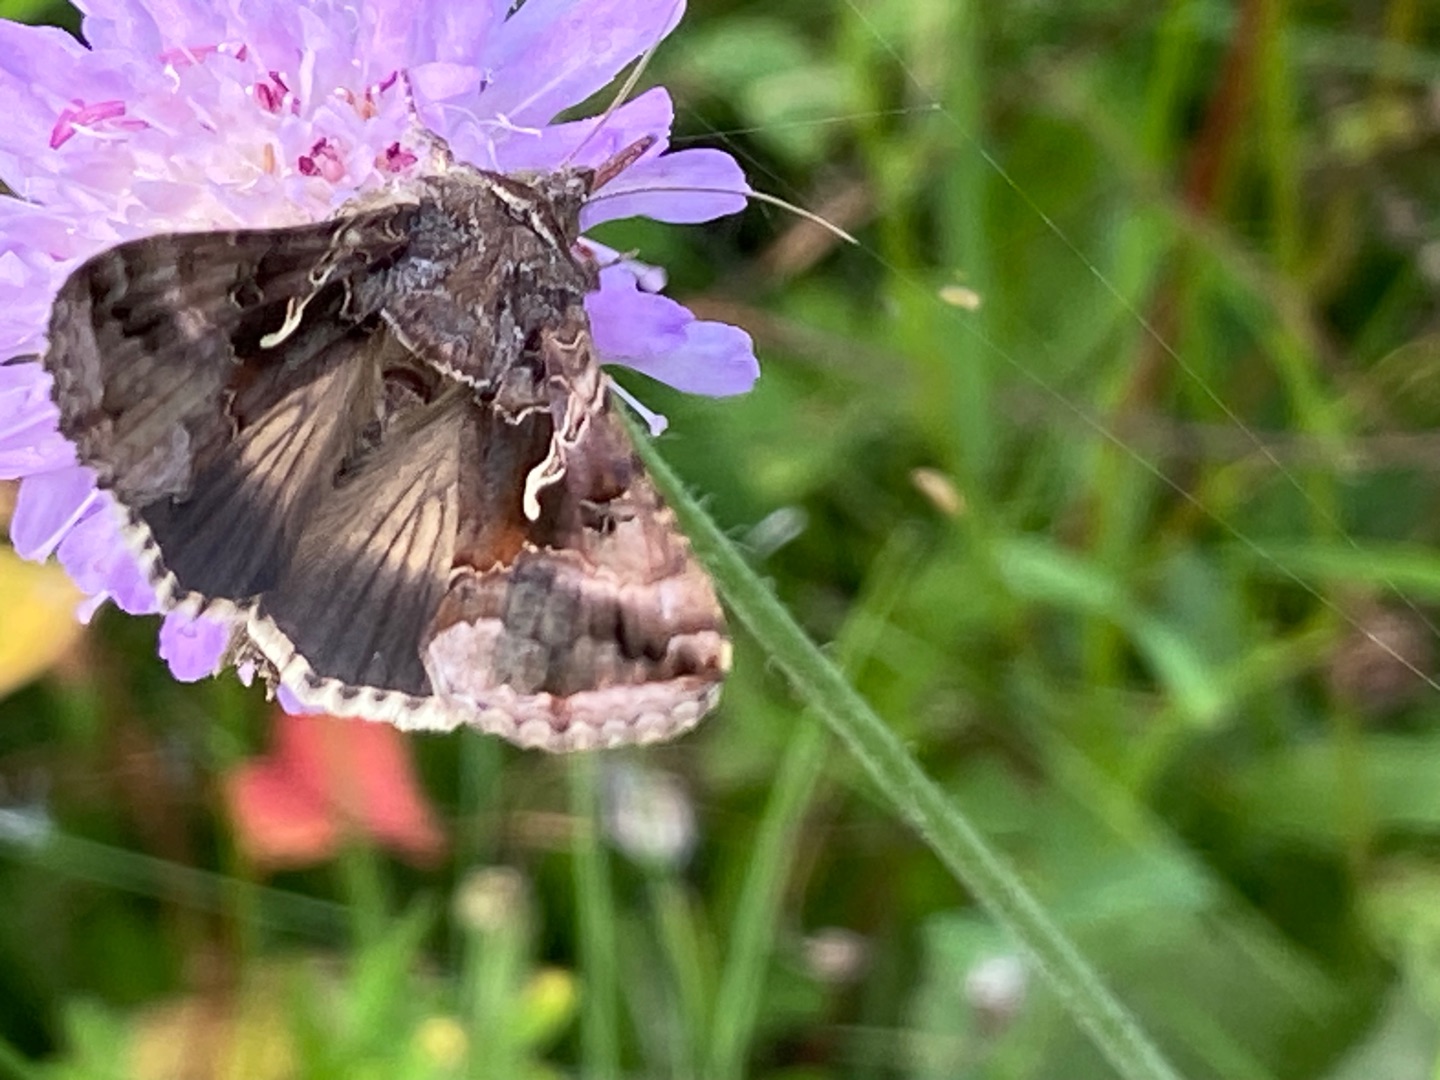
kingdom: Animalia
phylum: Arthropoda
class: Insecta
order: Lepidoptera
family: Noctuidae
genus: Autographa
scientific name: Autographa gamma
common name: Gammaugle
